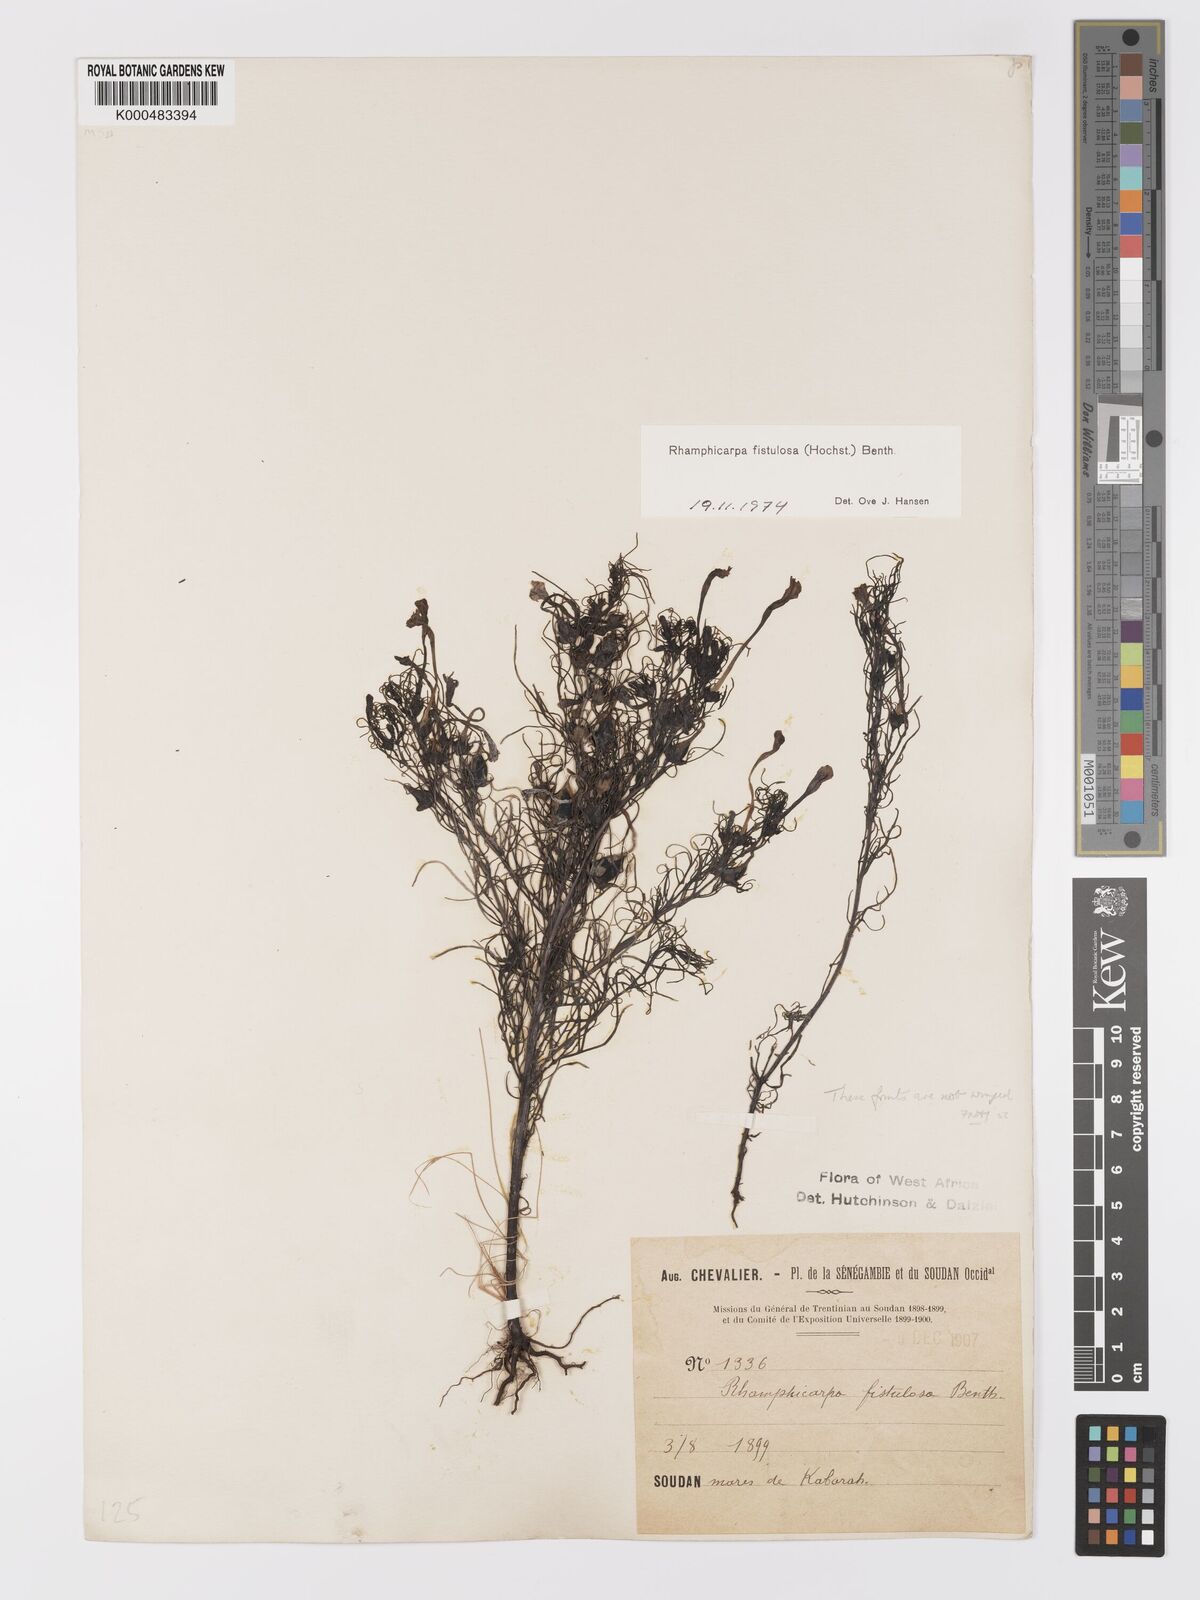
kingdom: Plantae
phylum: Tracheophyta
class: Magnoliopsida
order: Lamiales
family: Orobanchaceae
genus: Rhamphicarpa
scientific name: Rhamphicarpa fistulosa
